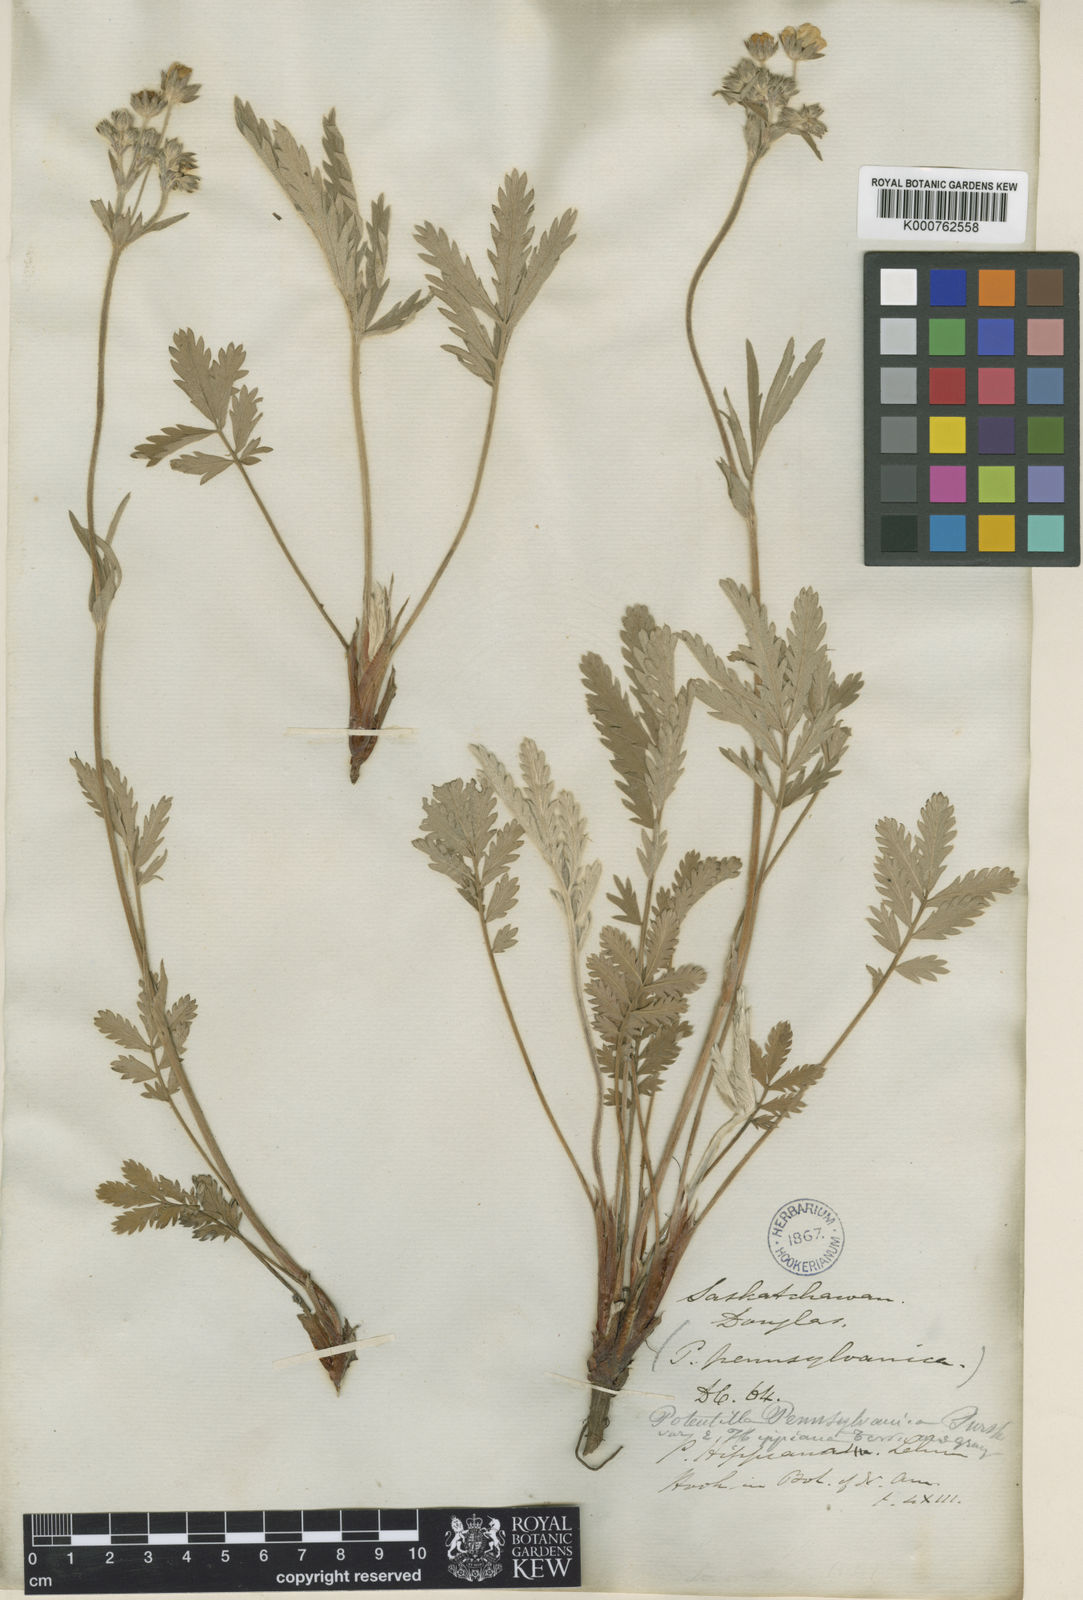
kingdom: Plantae
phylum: Tracheophyta
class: Magnoliopsida
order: Rosales
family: Rosaceae
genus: Potentilla
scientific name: Potentilla hippiana
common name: Woolly cinquefoil
